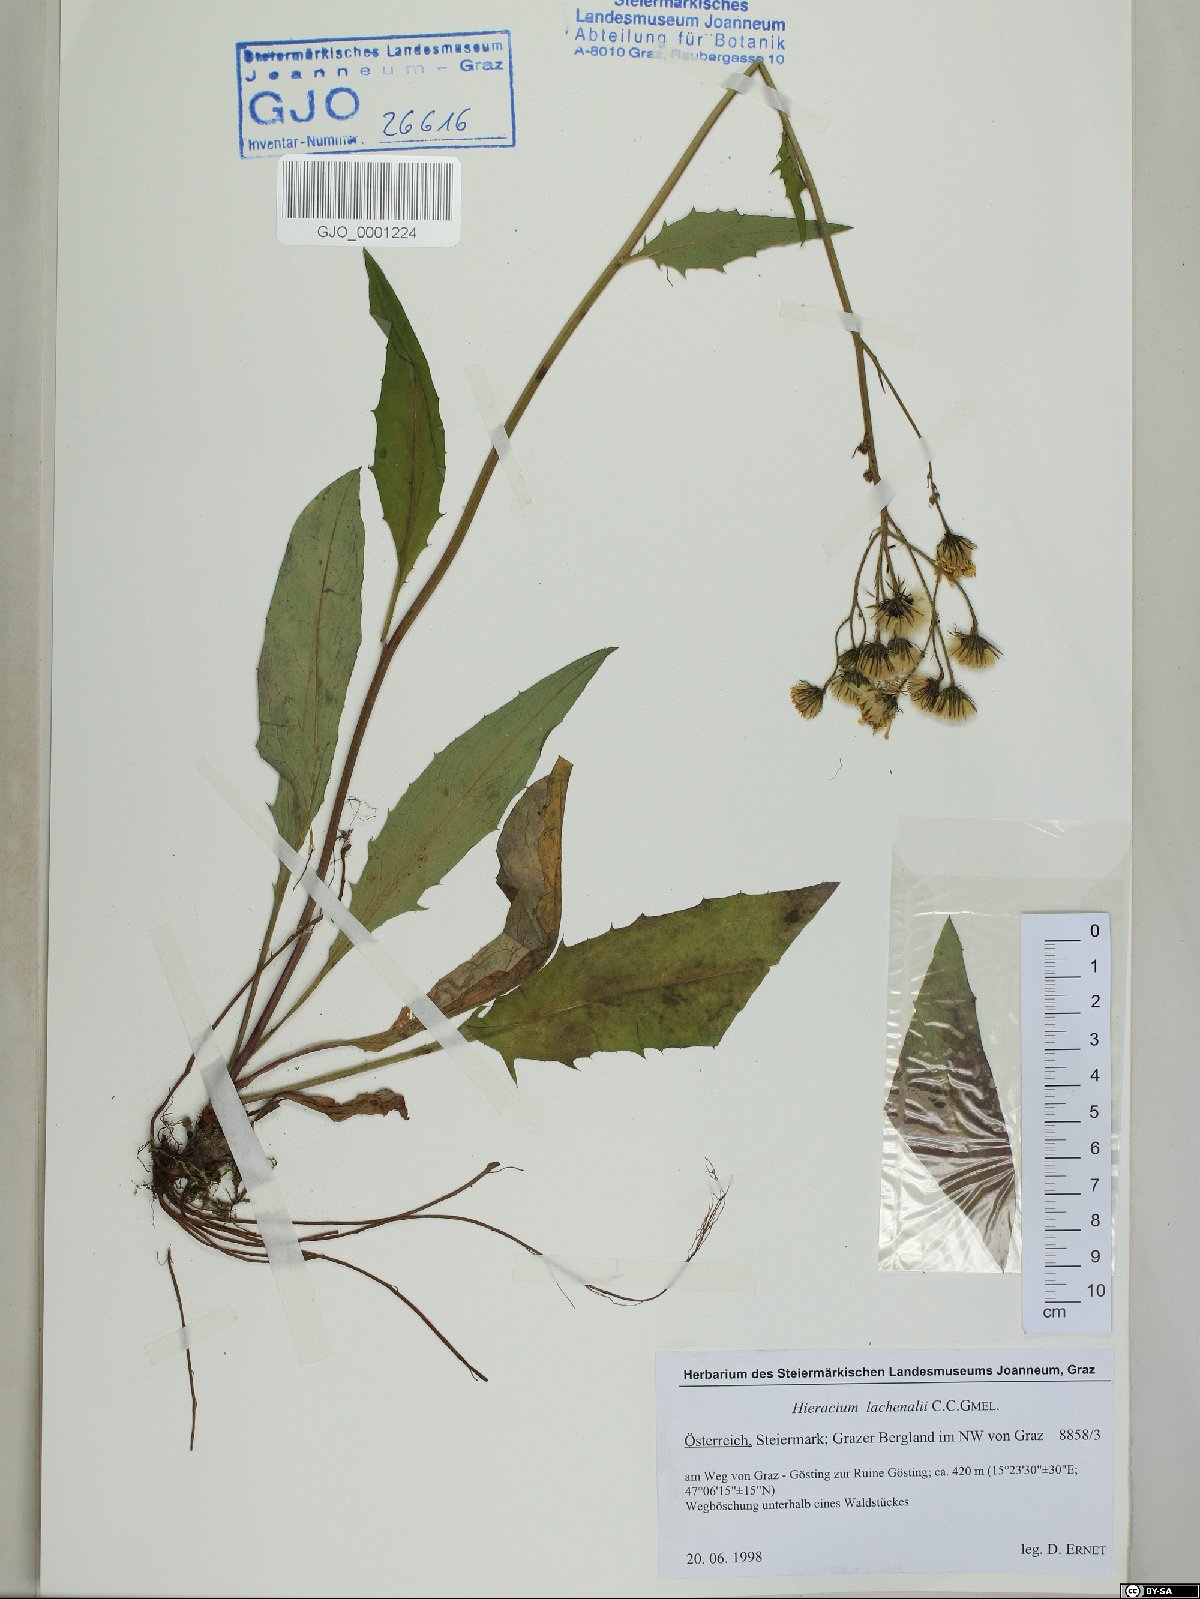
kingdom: Plantae
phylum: Tracheophyta
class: Magnoliopsida
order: Asterales
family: Asteraceae
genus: Hieracium
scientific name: Hieracium lachenalii
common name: Common hawkweed
